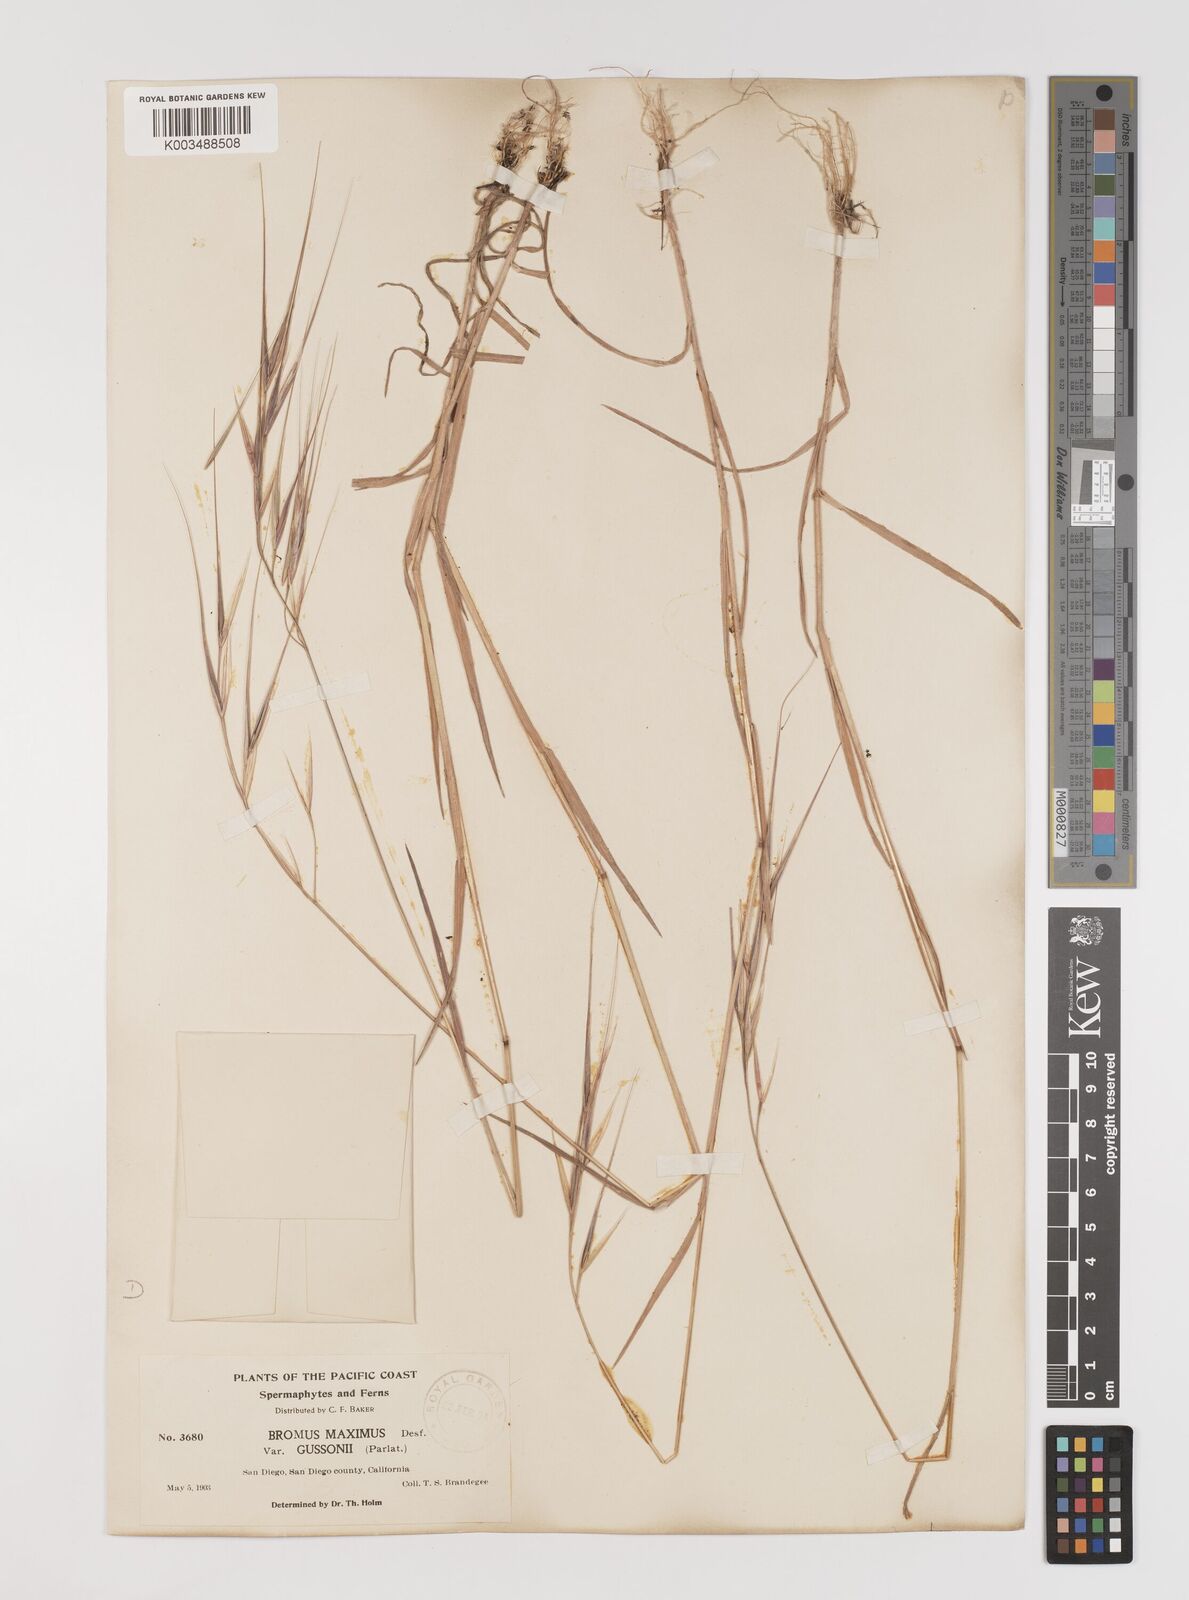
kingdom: Plantae
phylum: Tracheophyta
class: Liliopsida
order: Poales
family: Poaceae
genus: Bromus
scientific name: Bromus diandrus
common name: Ripgut brome
